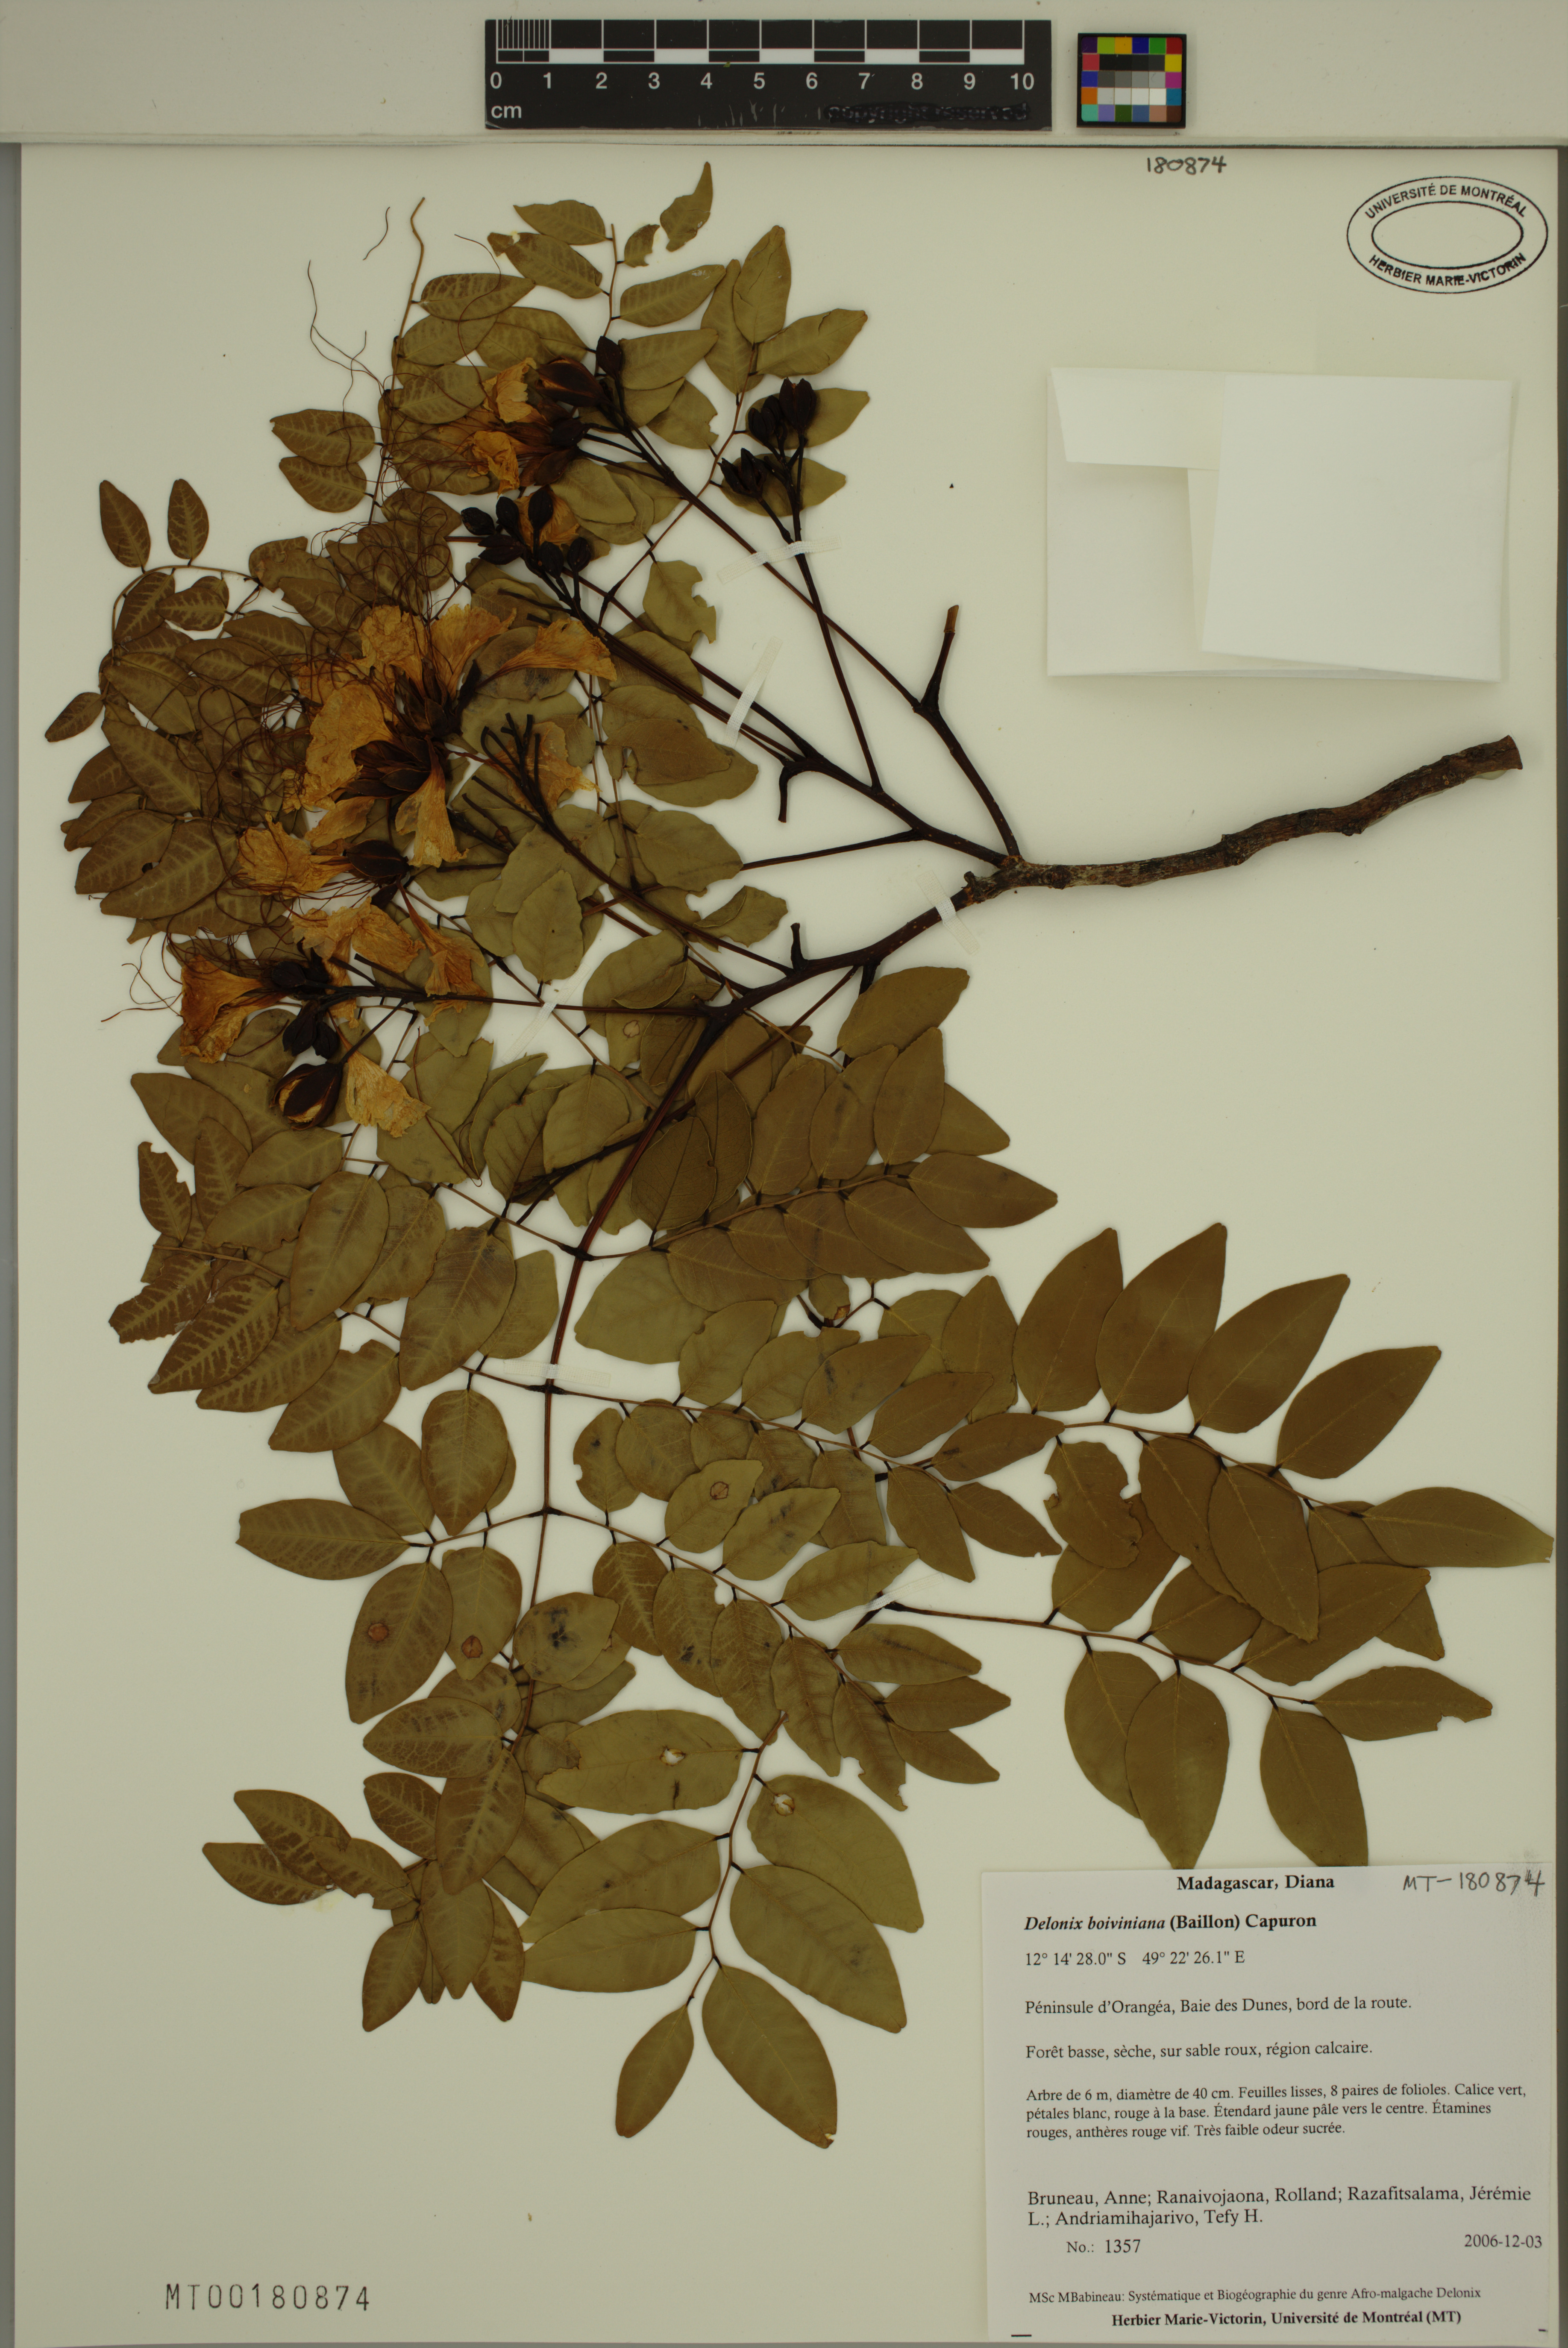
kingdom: Plantae
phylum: Tracheophyta
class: Magnoliopsida
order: Fabales
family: Fabaceae
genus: Delonix
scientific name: Delonix boiviniana
